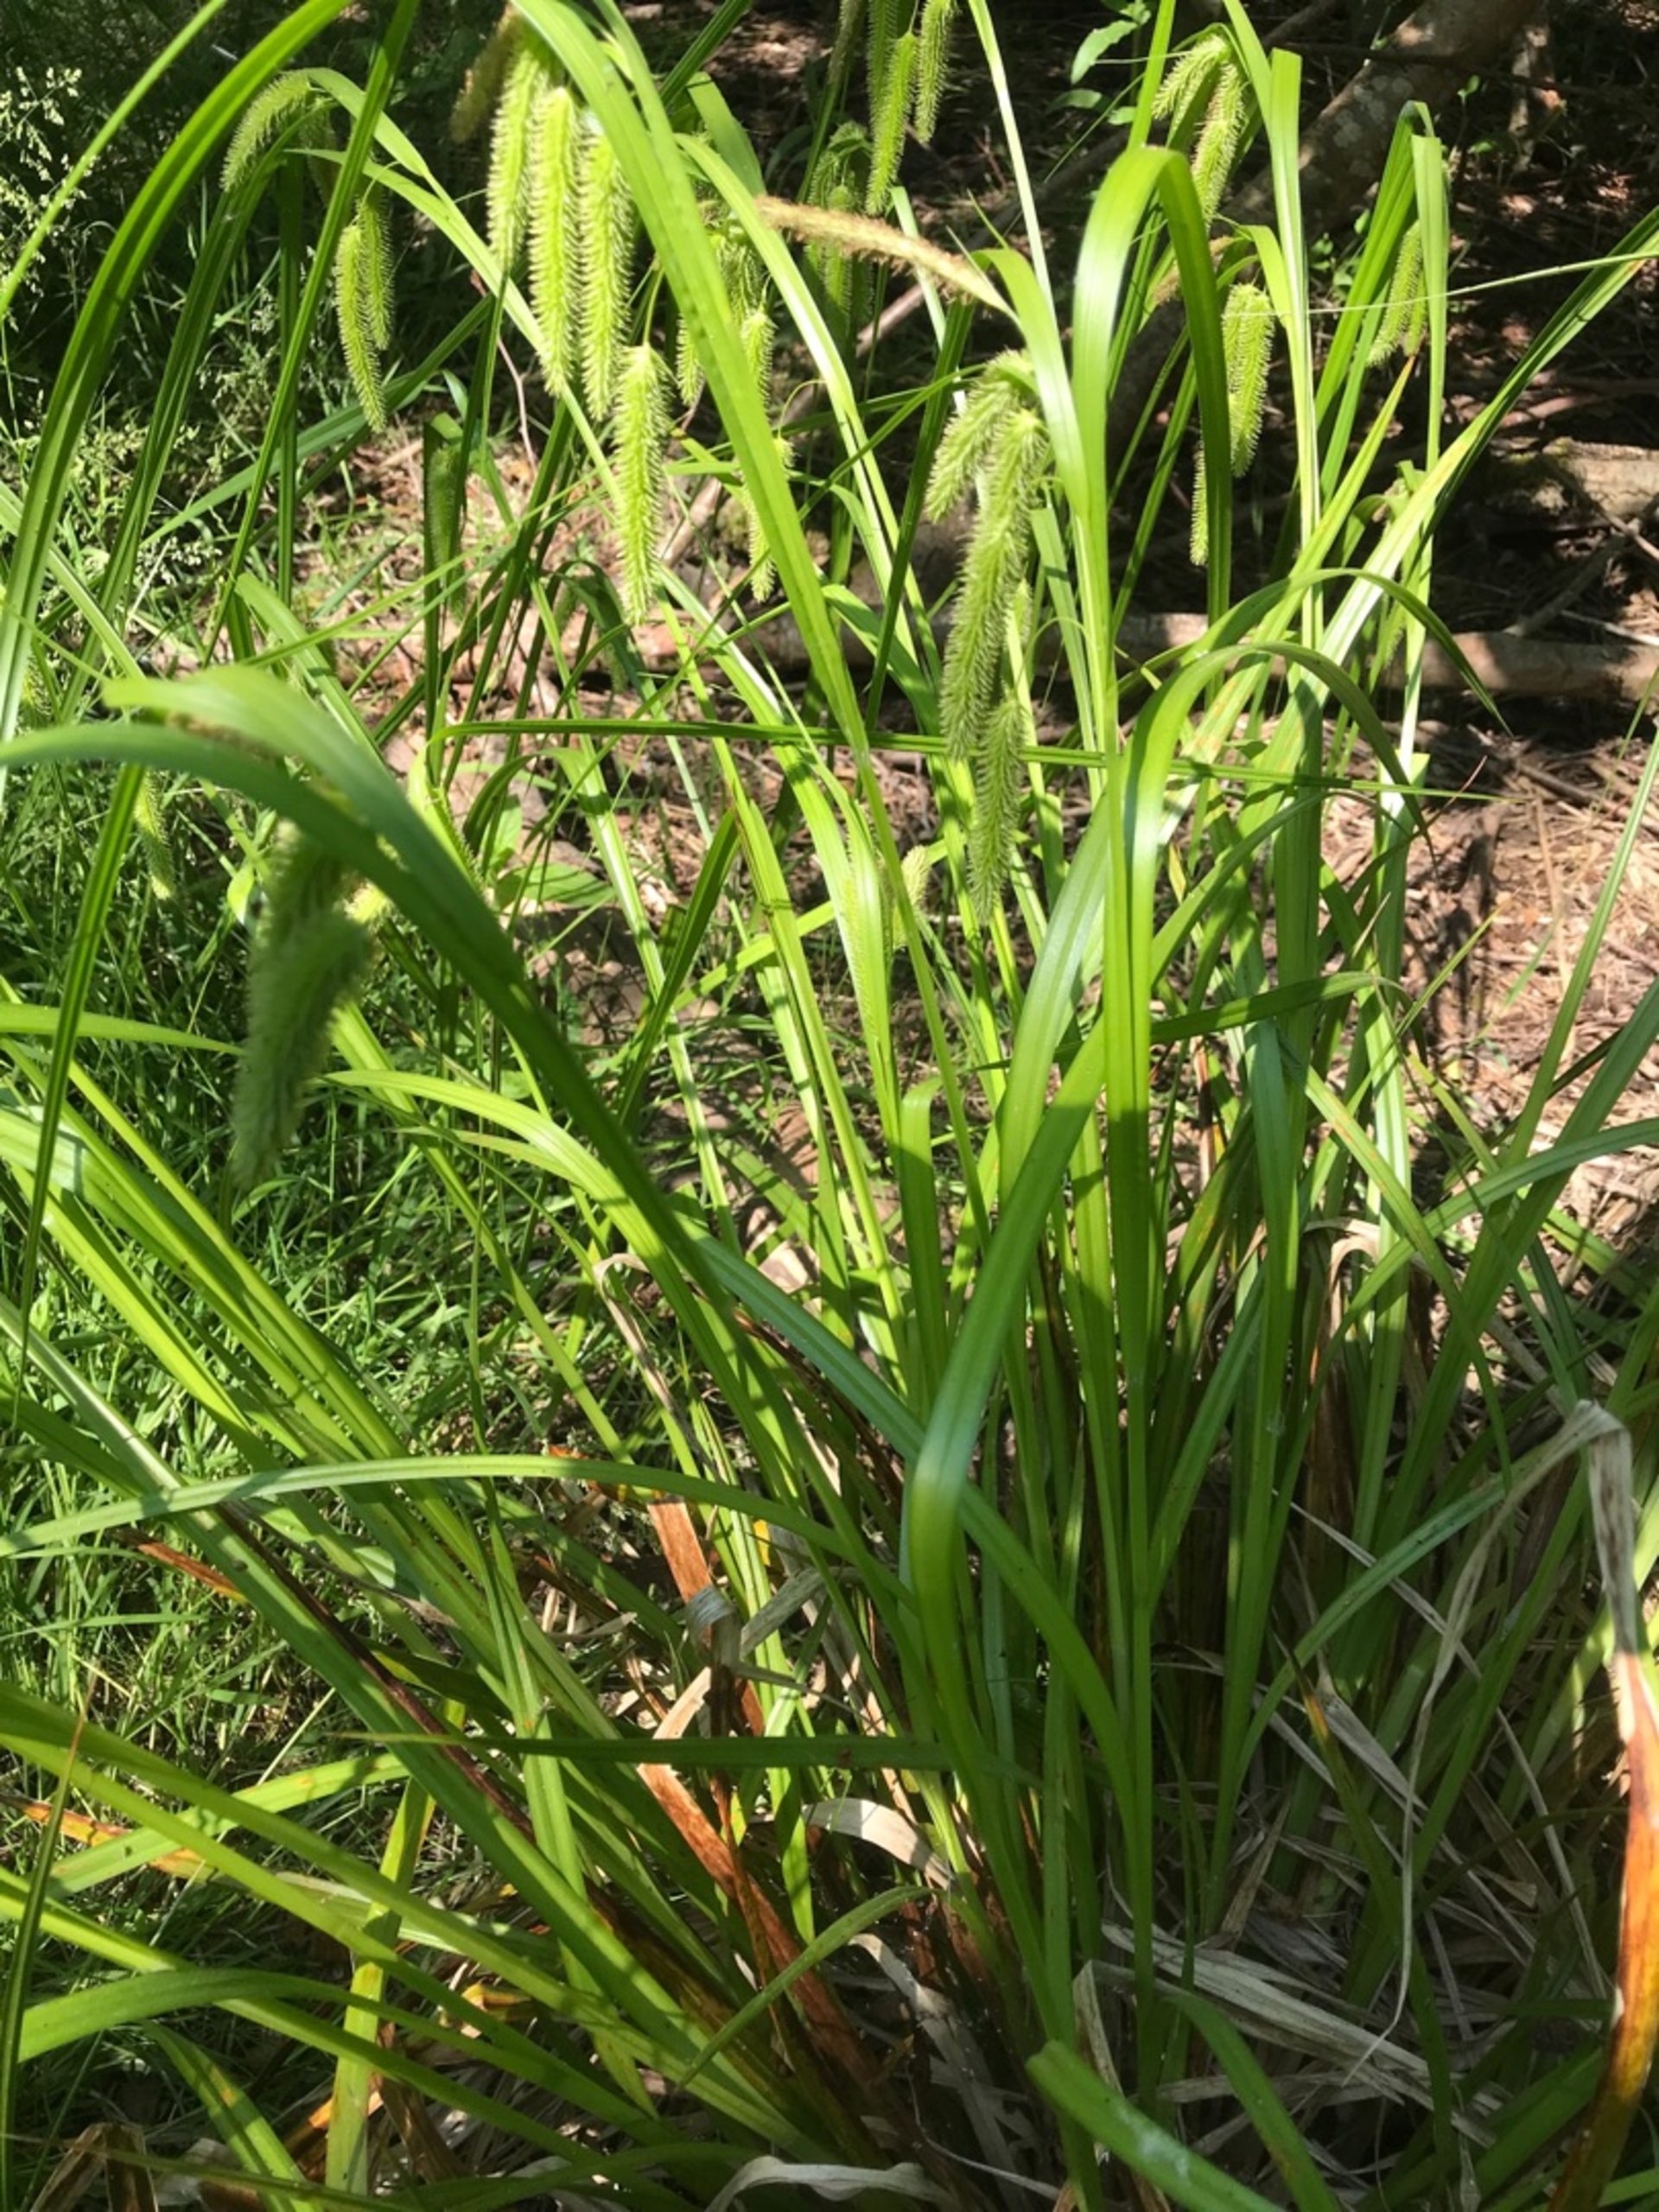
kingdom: Plantae
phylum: Tracheophyta
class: Liliopsida
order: Poales
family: Cyperaceae
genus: Carex
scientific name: Carex pseudocyperus
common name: Knippe-star
